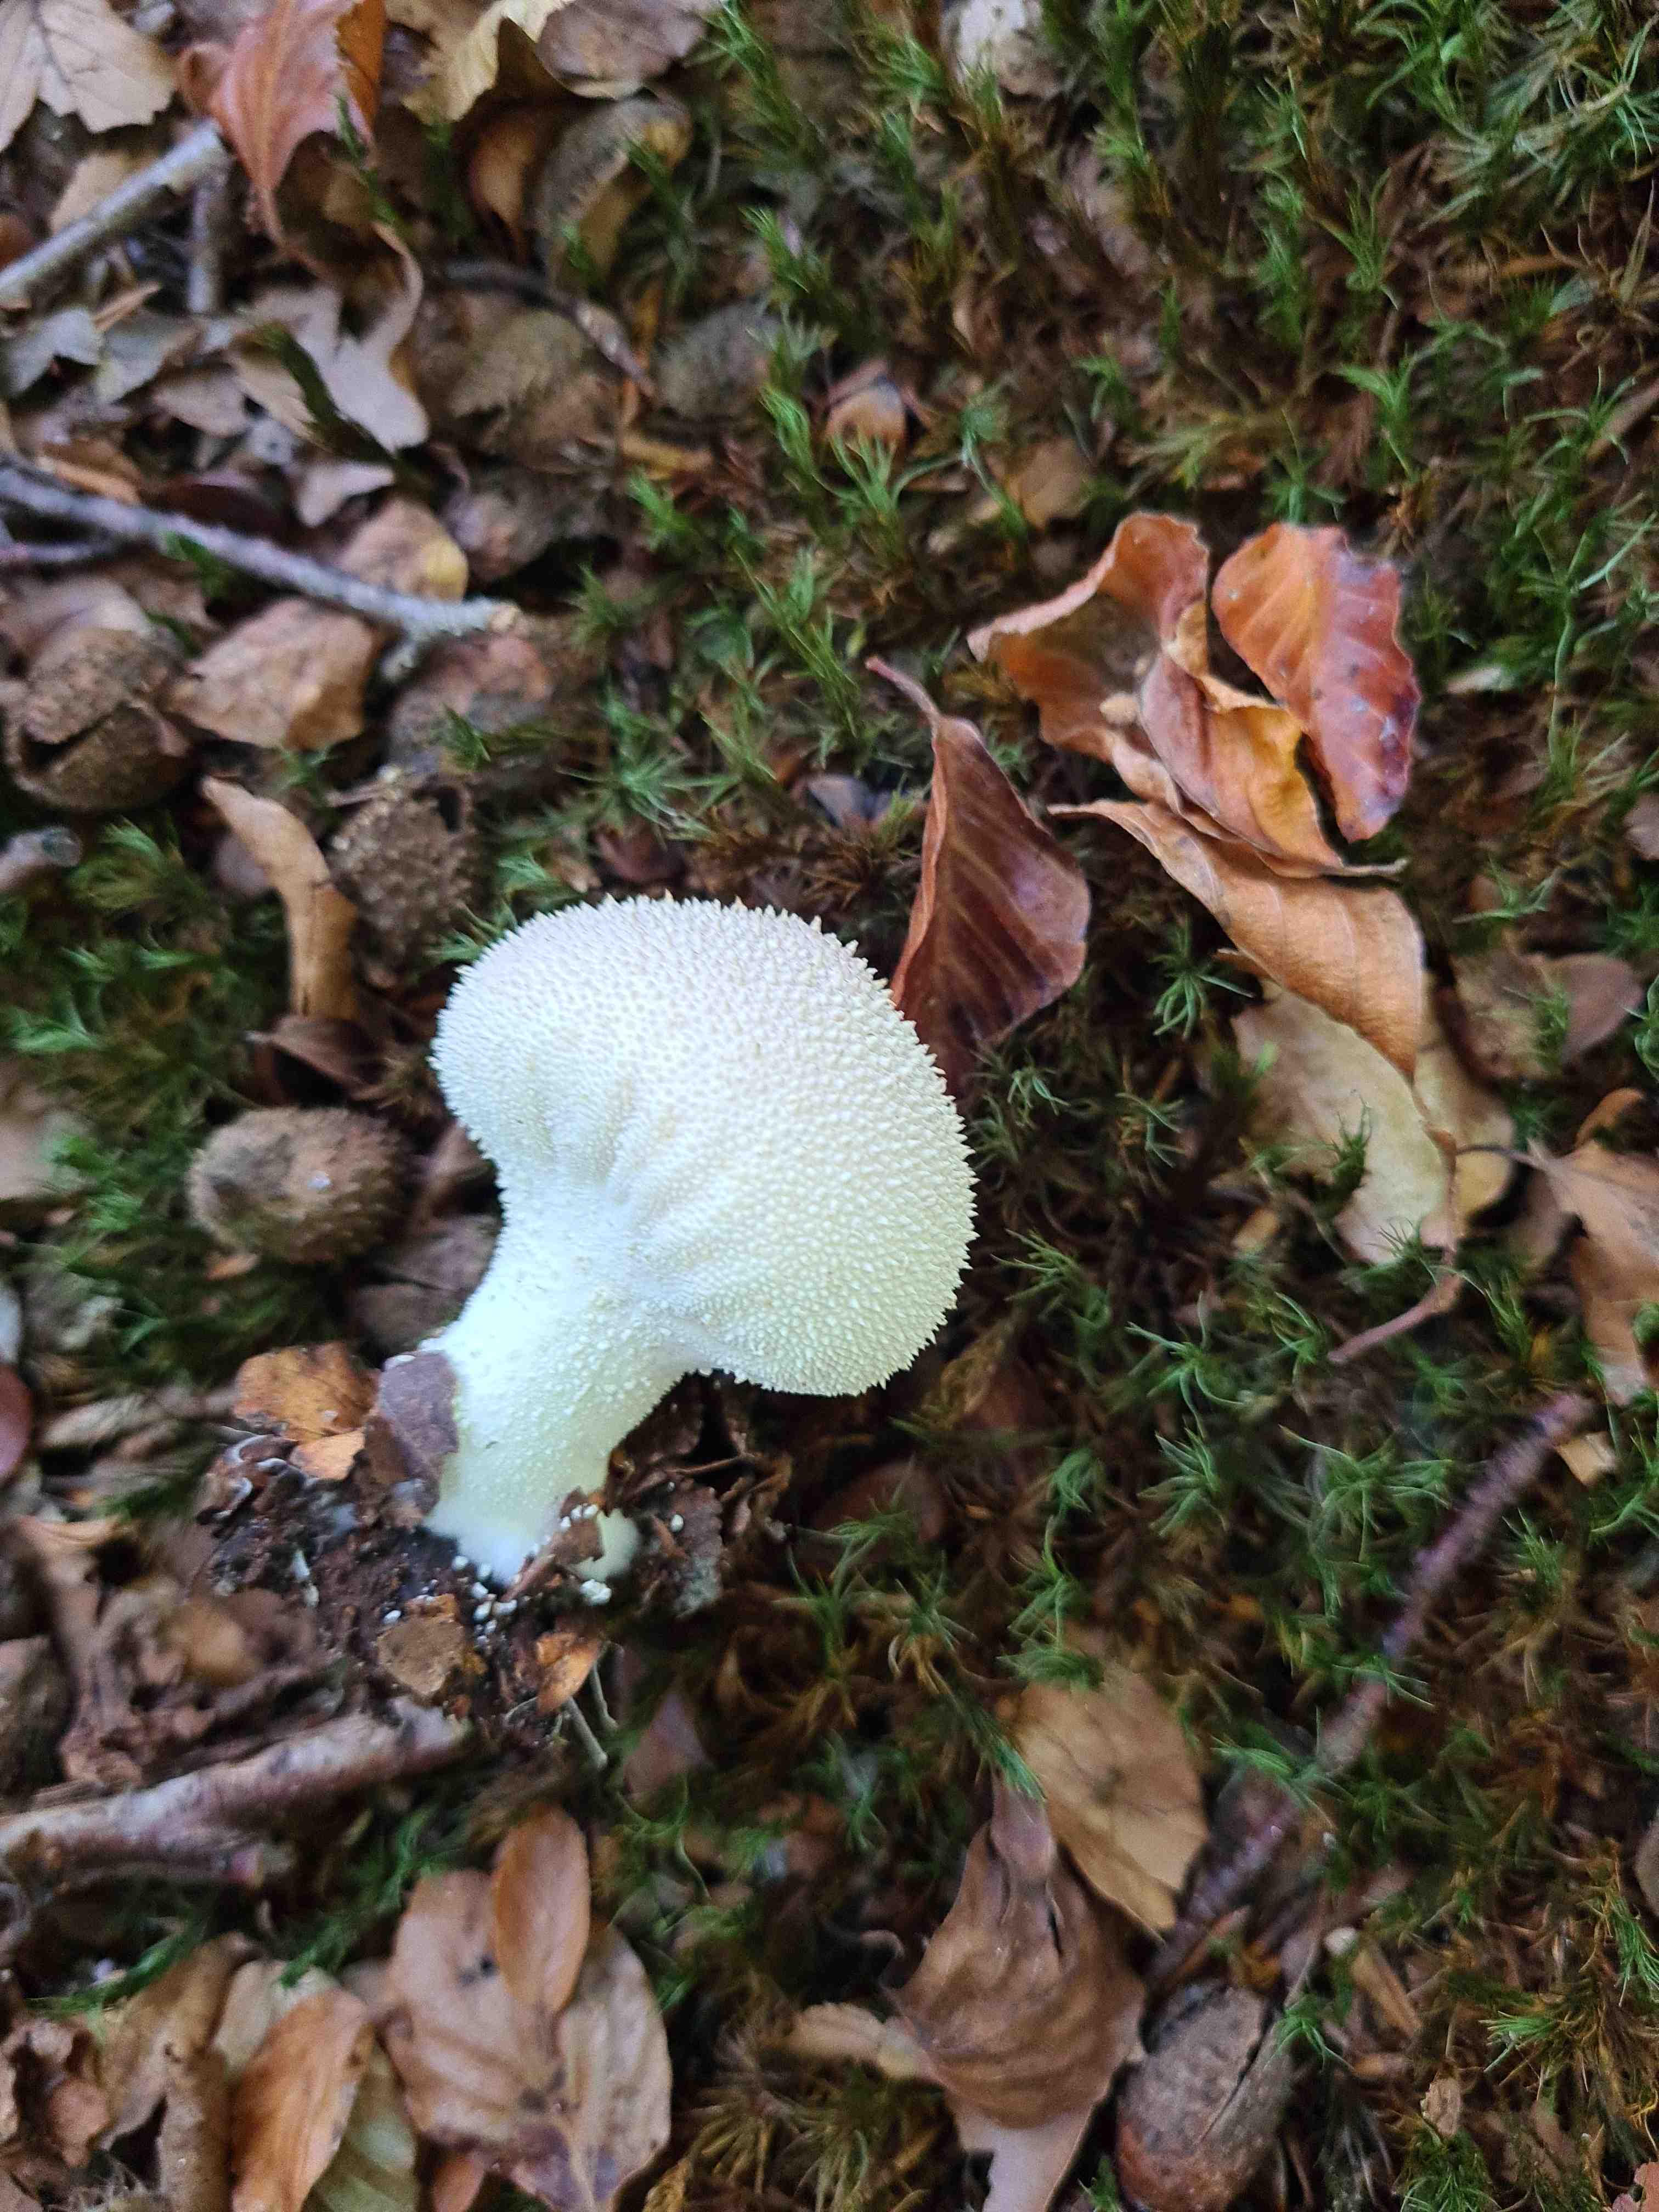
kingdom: Fungi
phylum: Basidiomycota
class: Agaricomycetes
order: Agaricales
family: Lycoperdaceae
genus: Lycoperdon
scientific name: Lycoperdon perlatum
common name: krystal-støvbold
